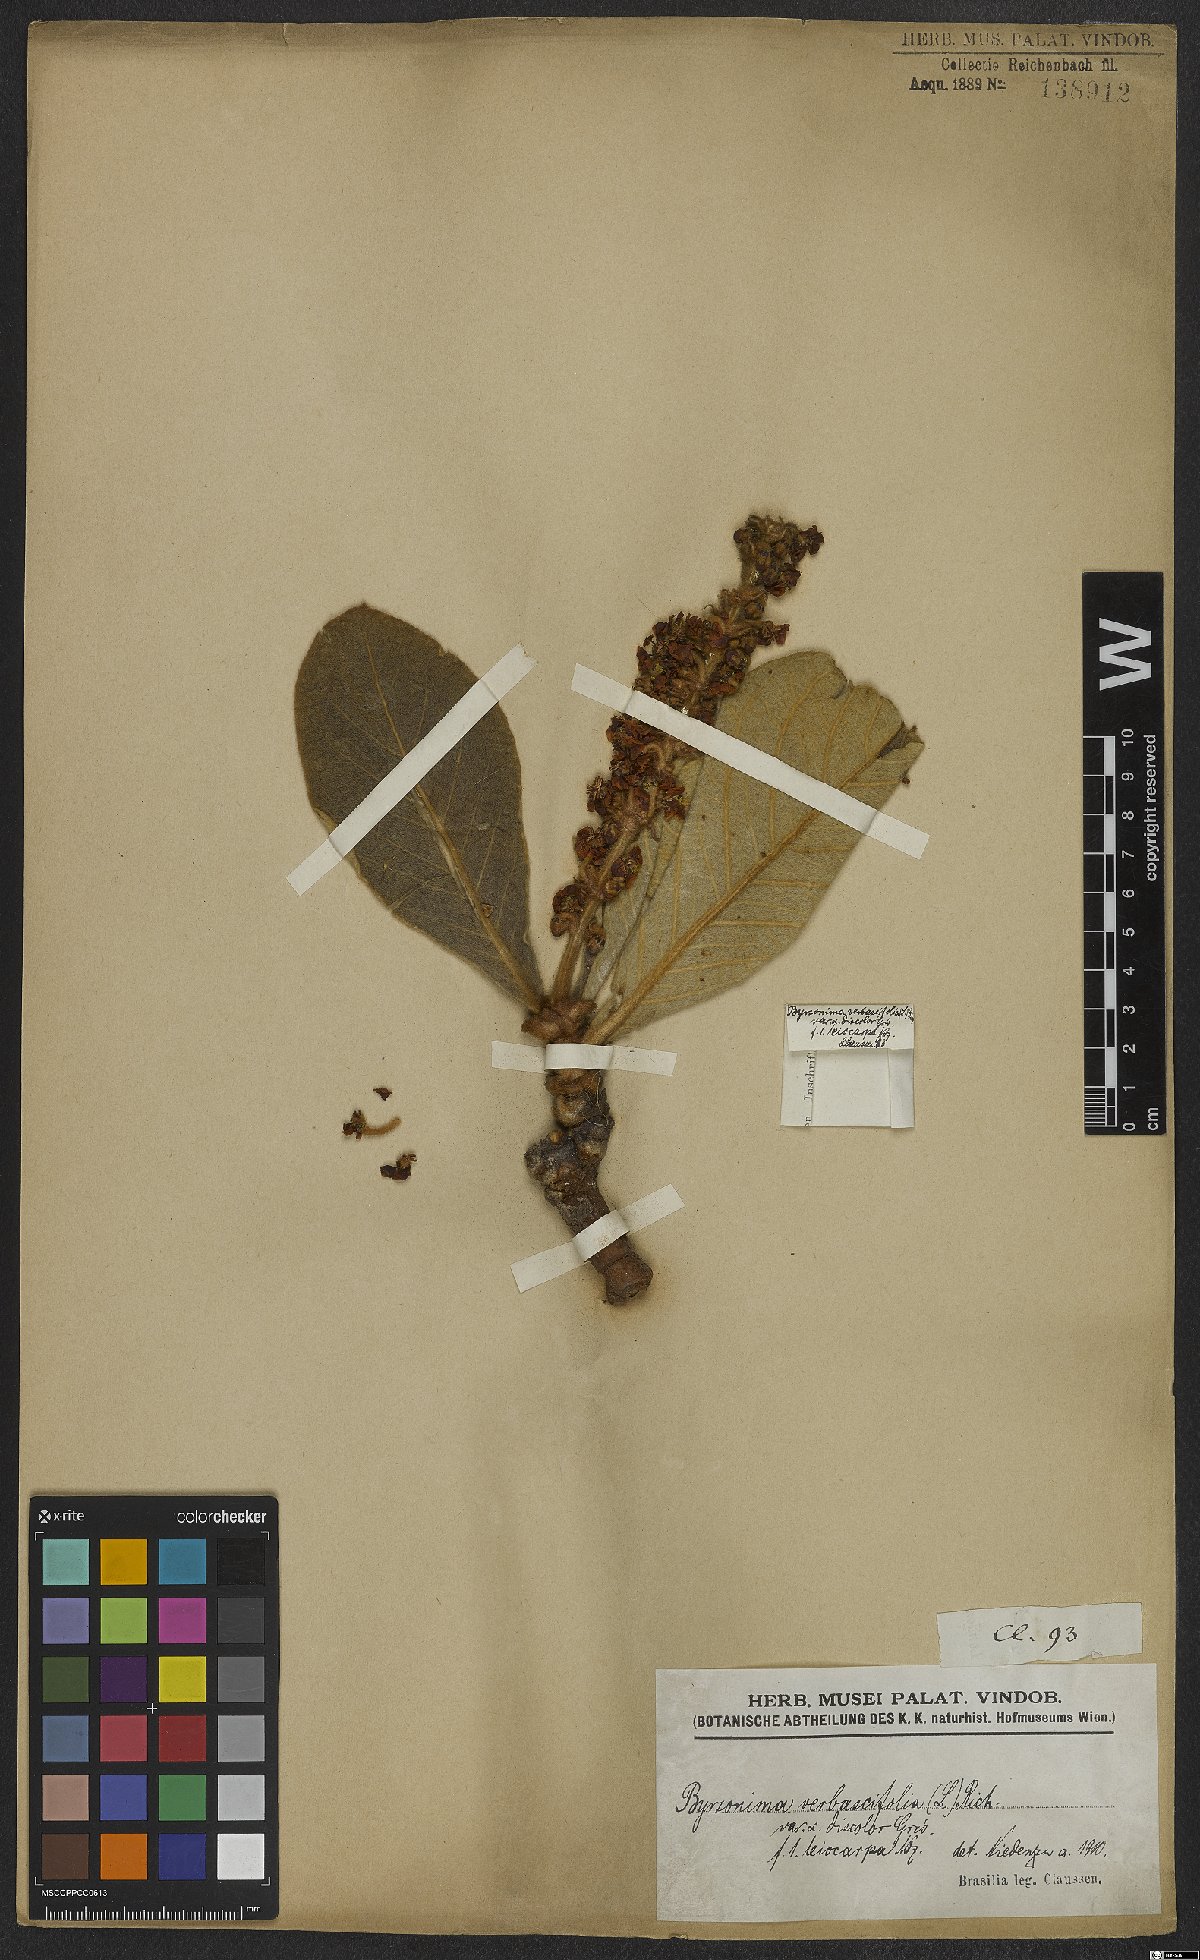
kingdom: Plantae
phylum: Tracheophyta
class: Magnoliopsida
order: Malpighiales
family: Malpighiaceae
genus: Byrsonima
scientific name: Byrsonima verbascifolia
